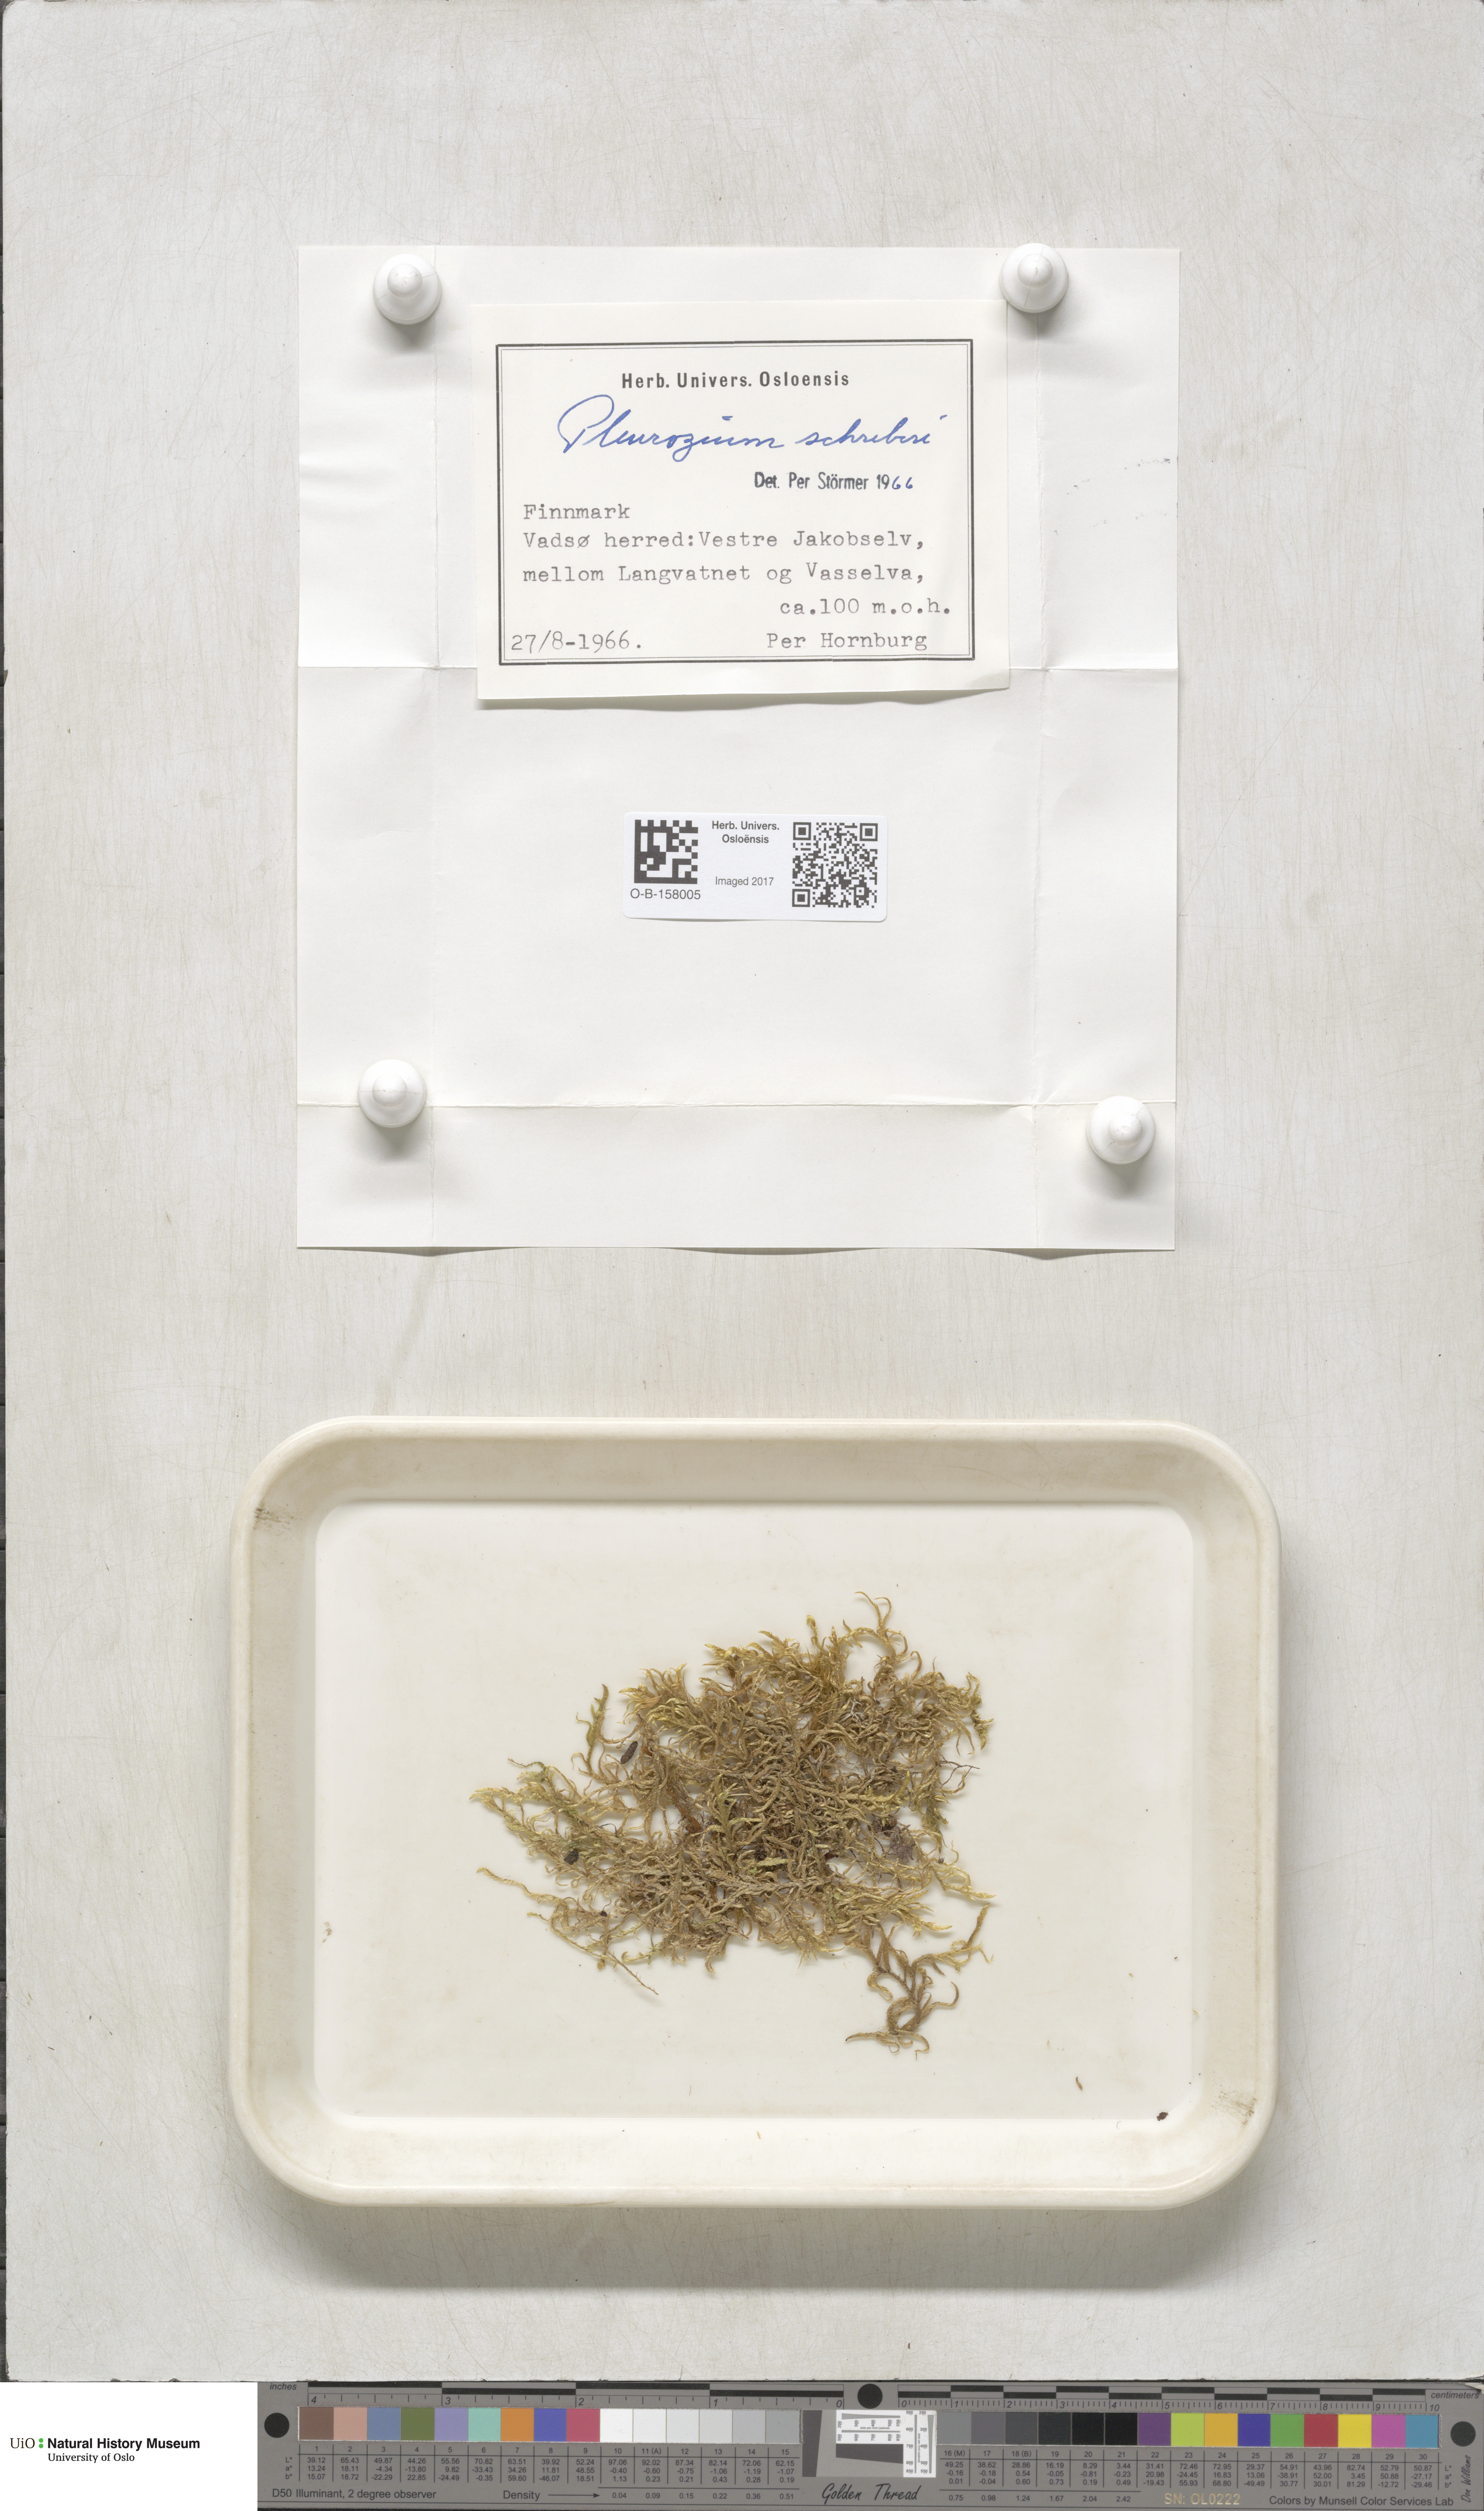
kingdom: Plantae
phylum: Bryophyta
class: Bryopsida
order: Hypnales
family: Hylocomiaceae
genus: Pleurozium
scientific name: Pleurozium schreberi
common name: Red-stemmed feather moss
